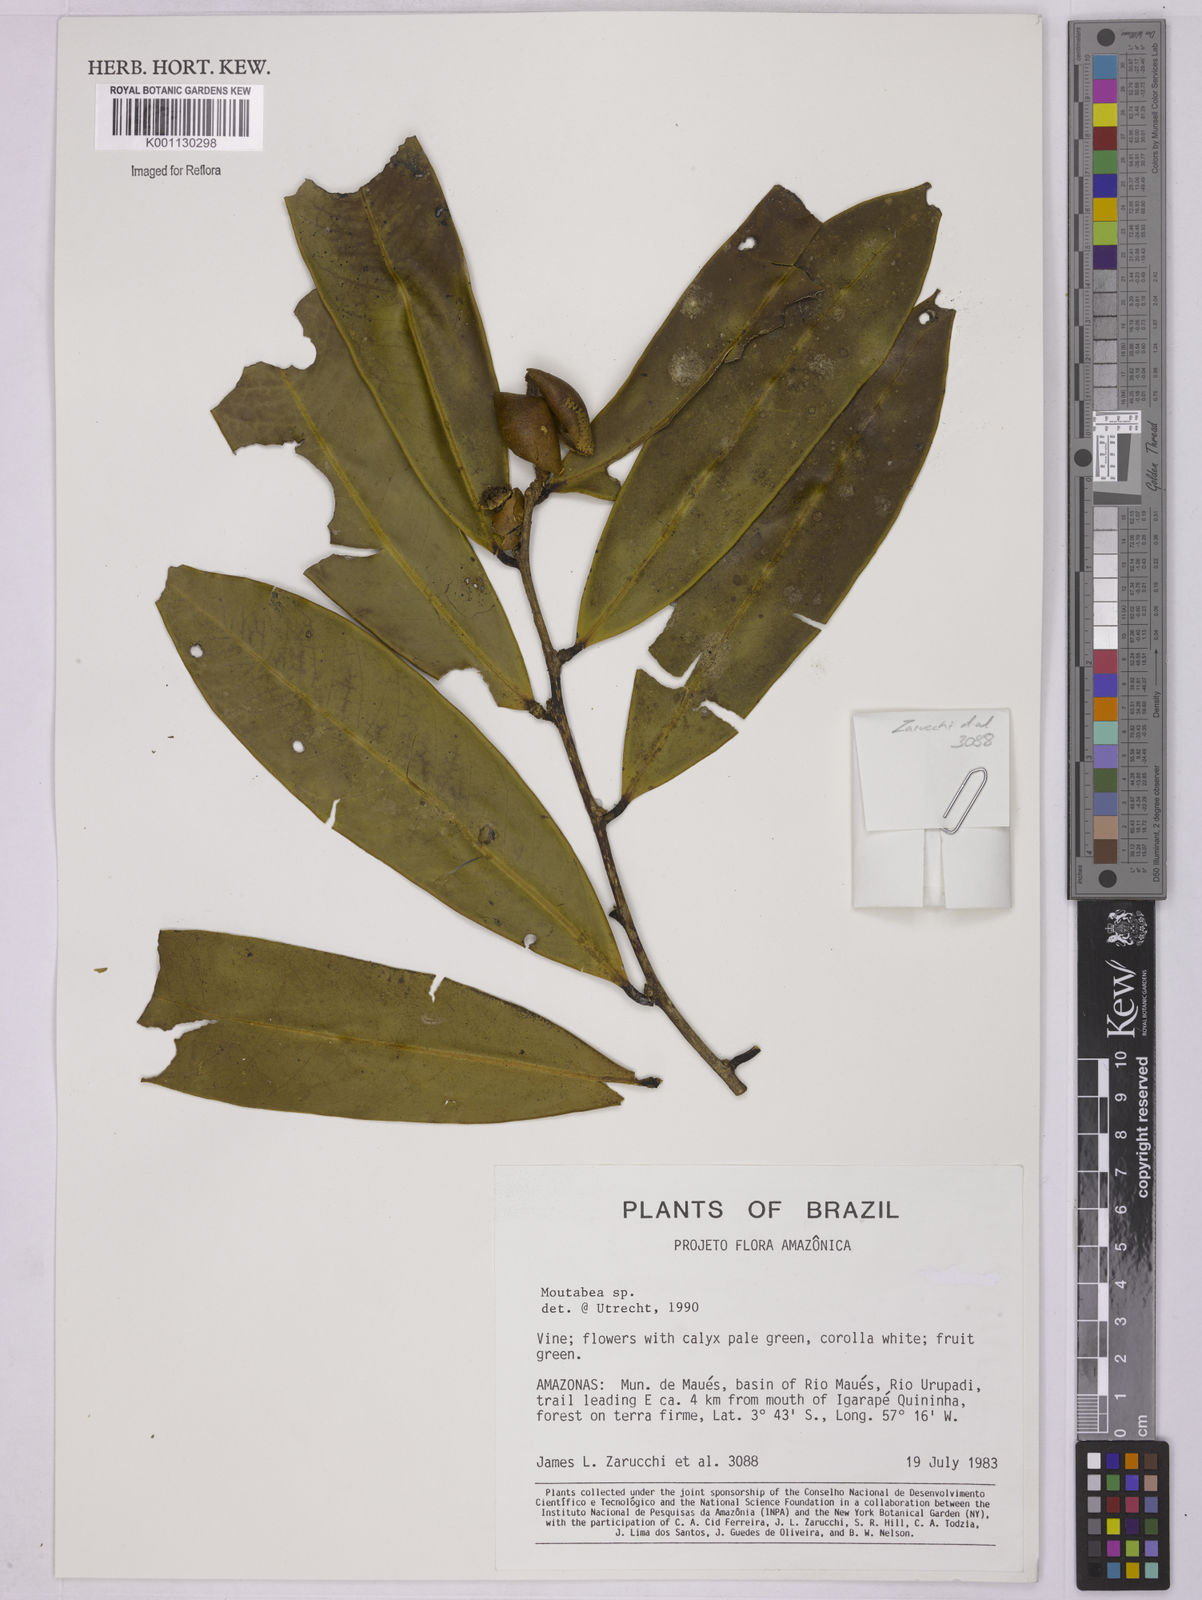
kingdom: Plantae
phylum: Tracheophyta
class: Magnoliopsida
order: Fabales
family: Polygalaceae
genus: Moutabea
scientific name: Moutabea
